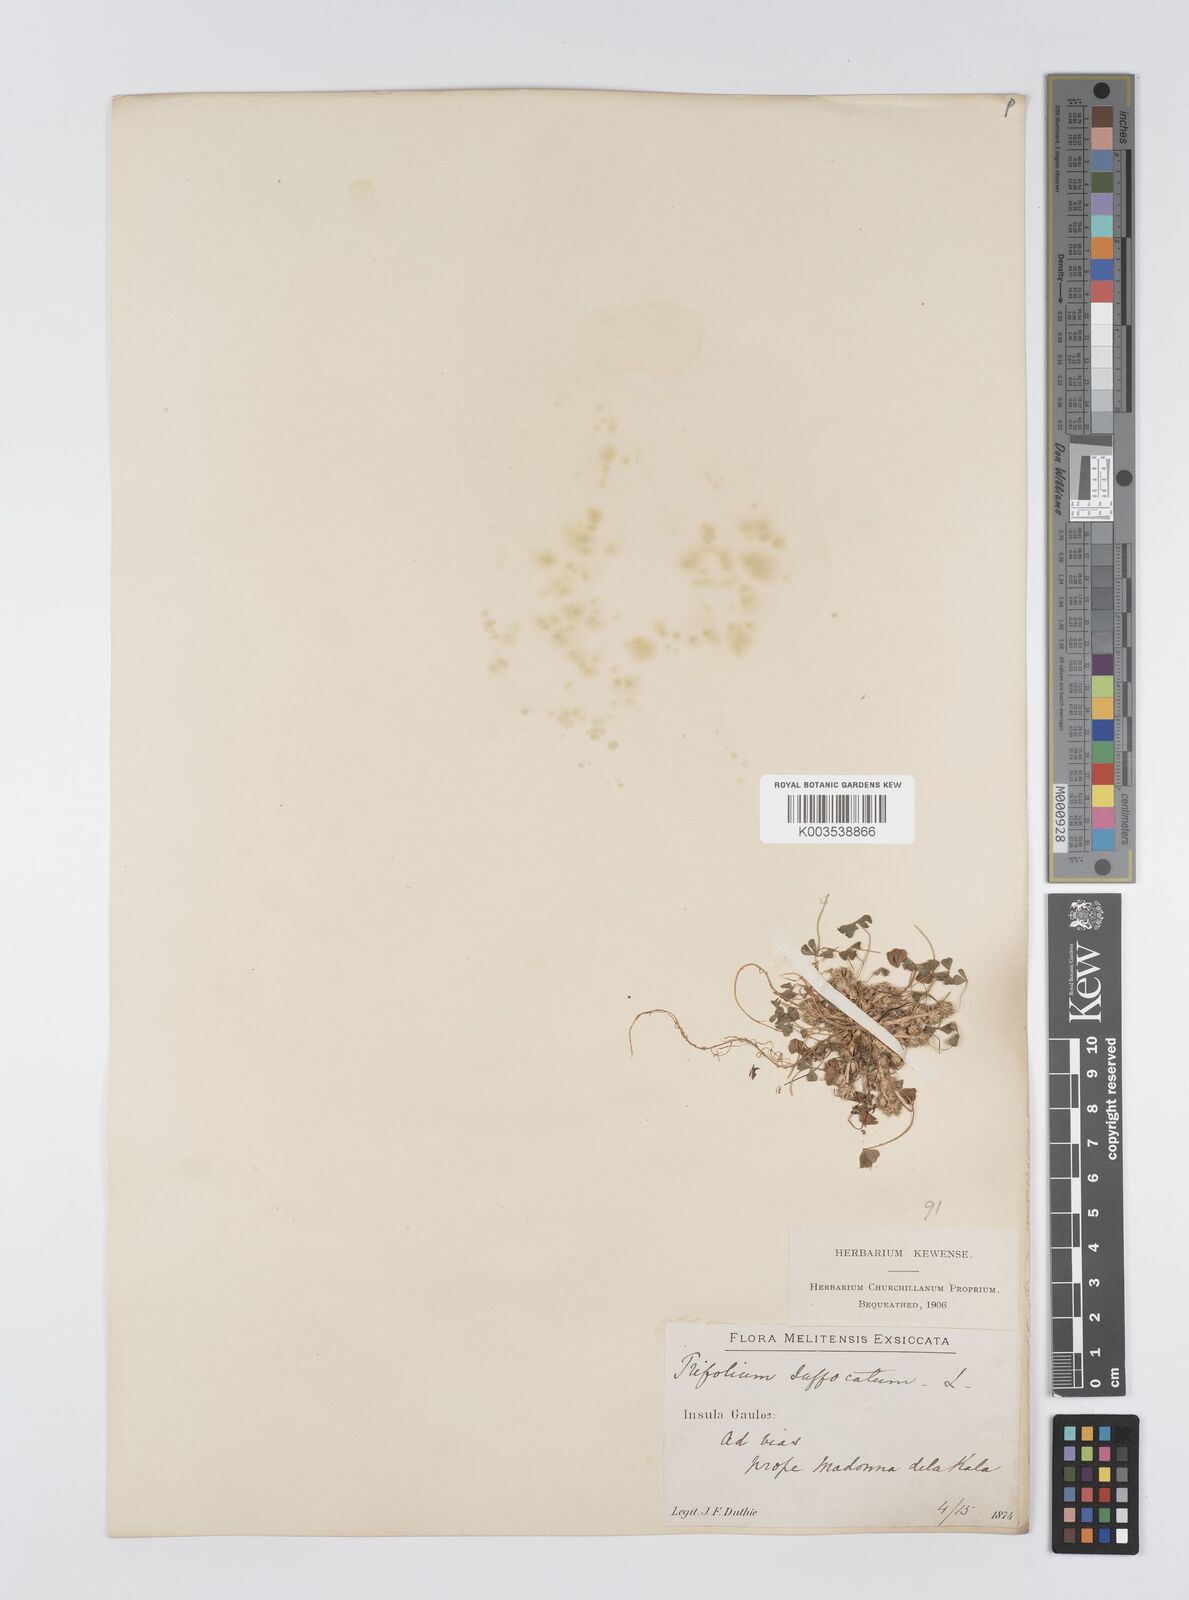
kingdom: Plantae
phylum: Tracheophyta
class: Magnoliopsida
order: Fabales
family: Fabaceae
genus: Trifolium
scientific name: Trifolium suffocatum
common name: Suffocated clover
